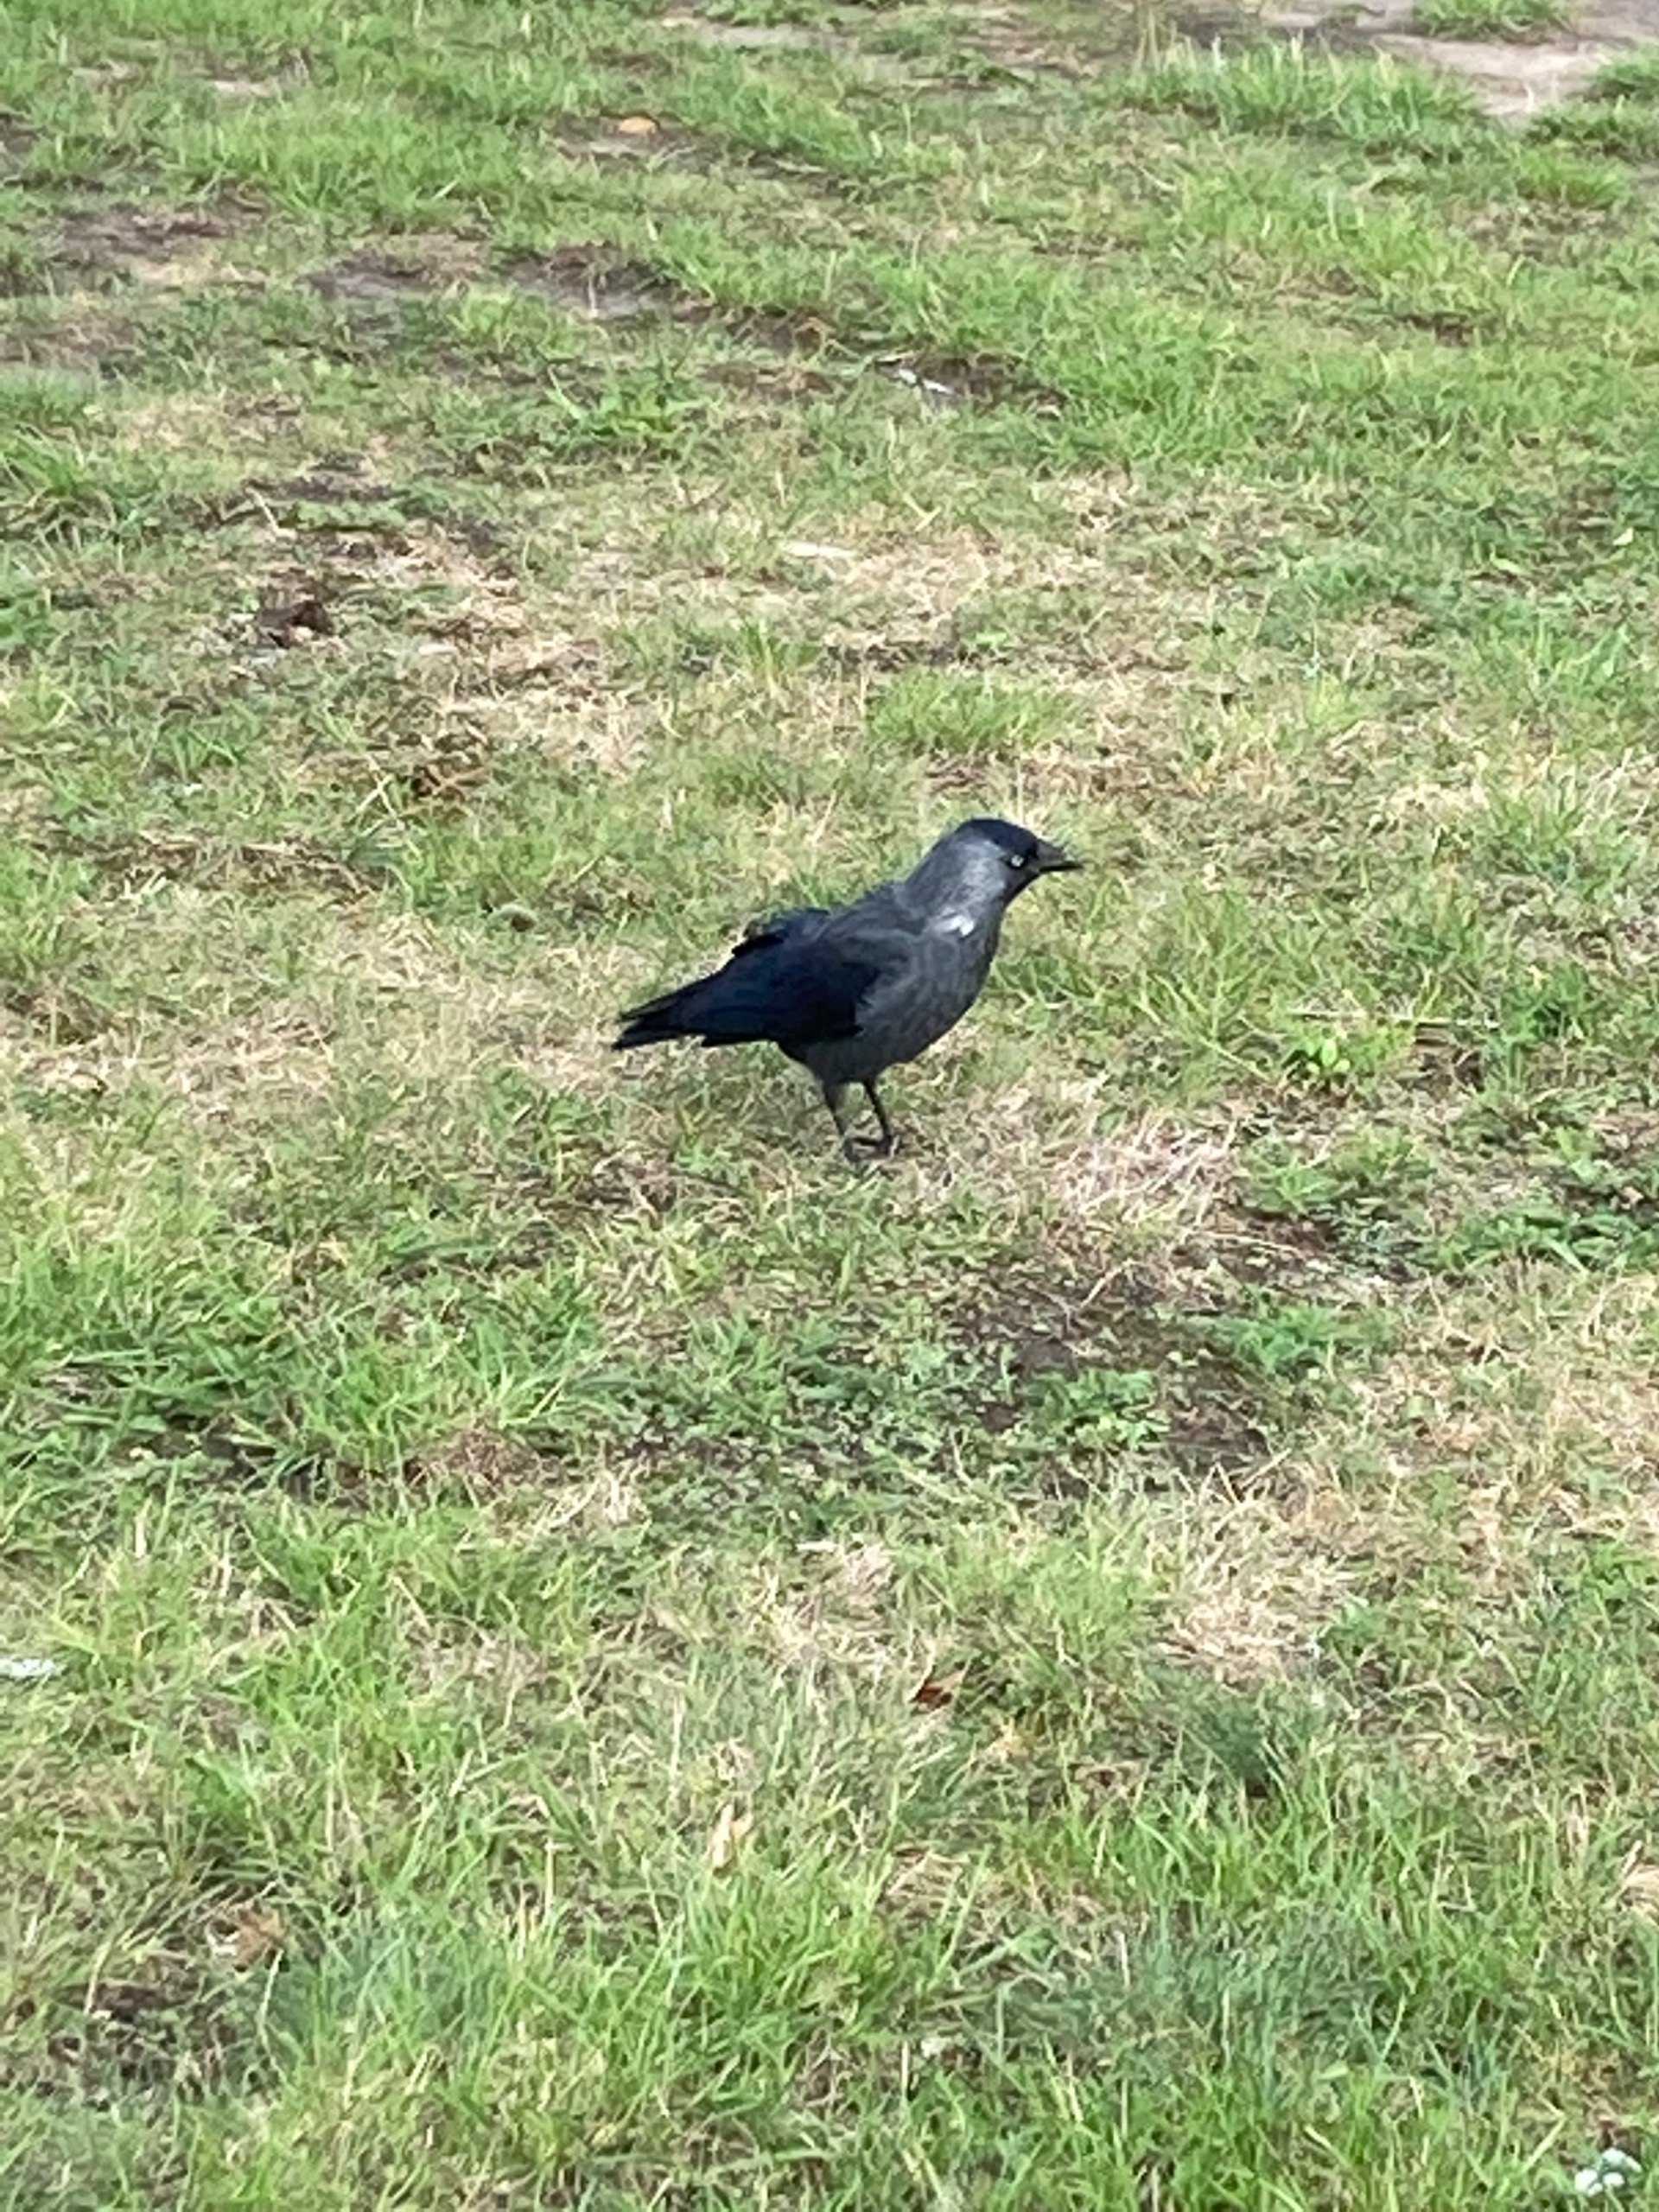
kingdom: Animalia
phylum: Chordata
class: Aves
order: Passeriformes
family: Corvidae
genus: Coloeus
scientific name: Coloeus monedula
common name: Allike
